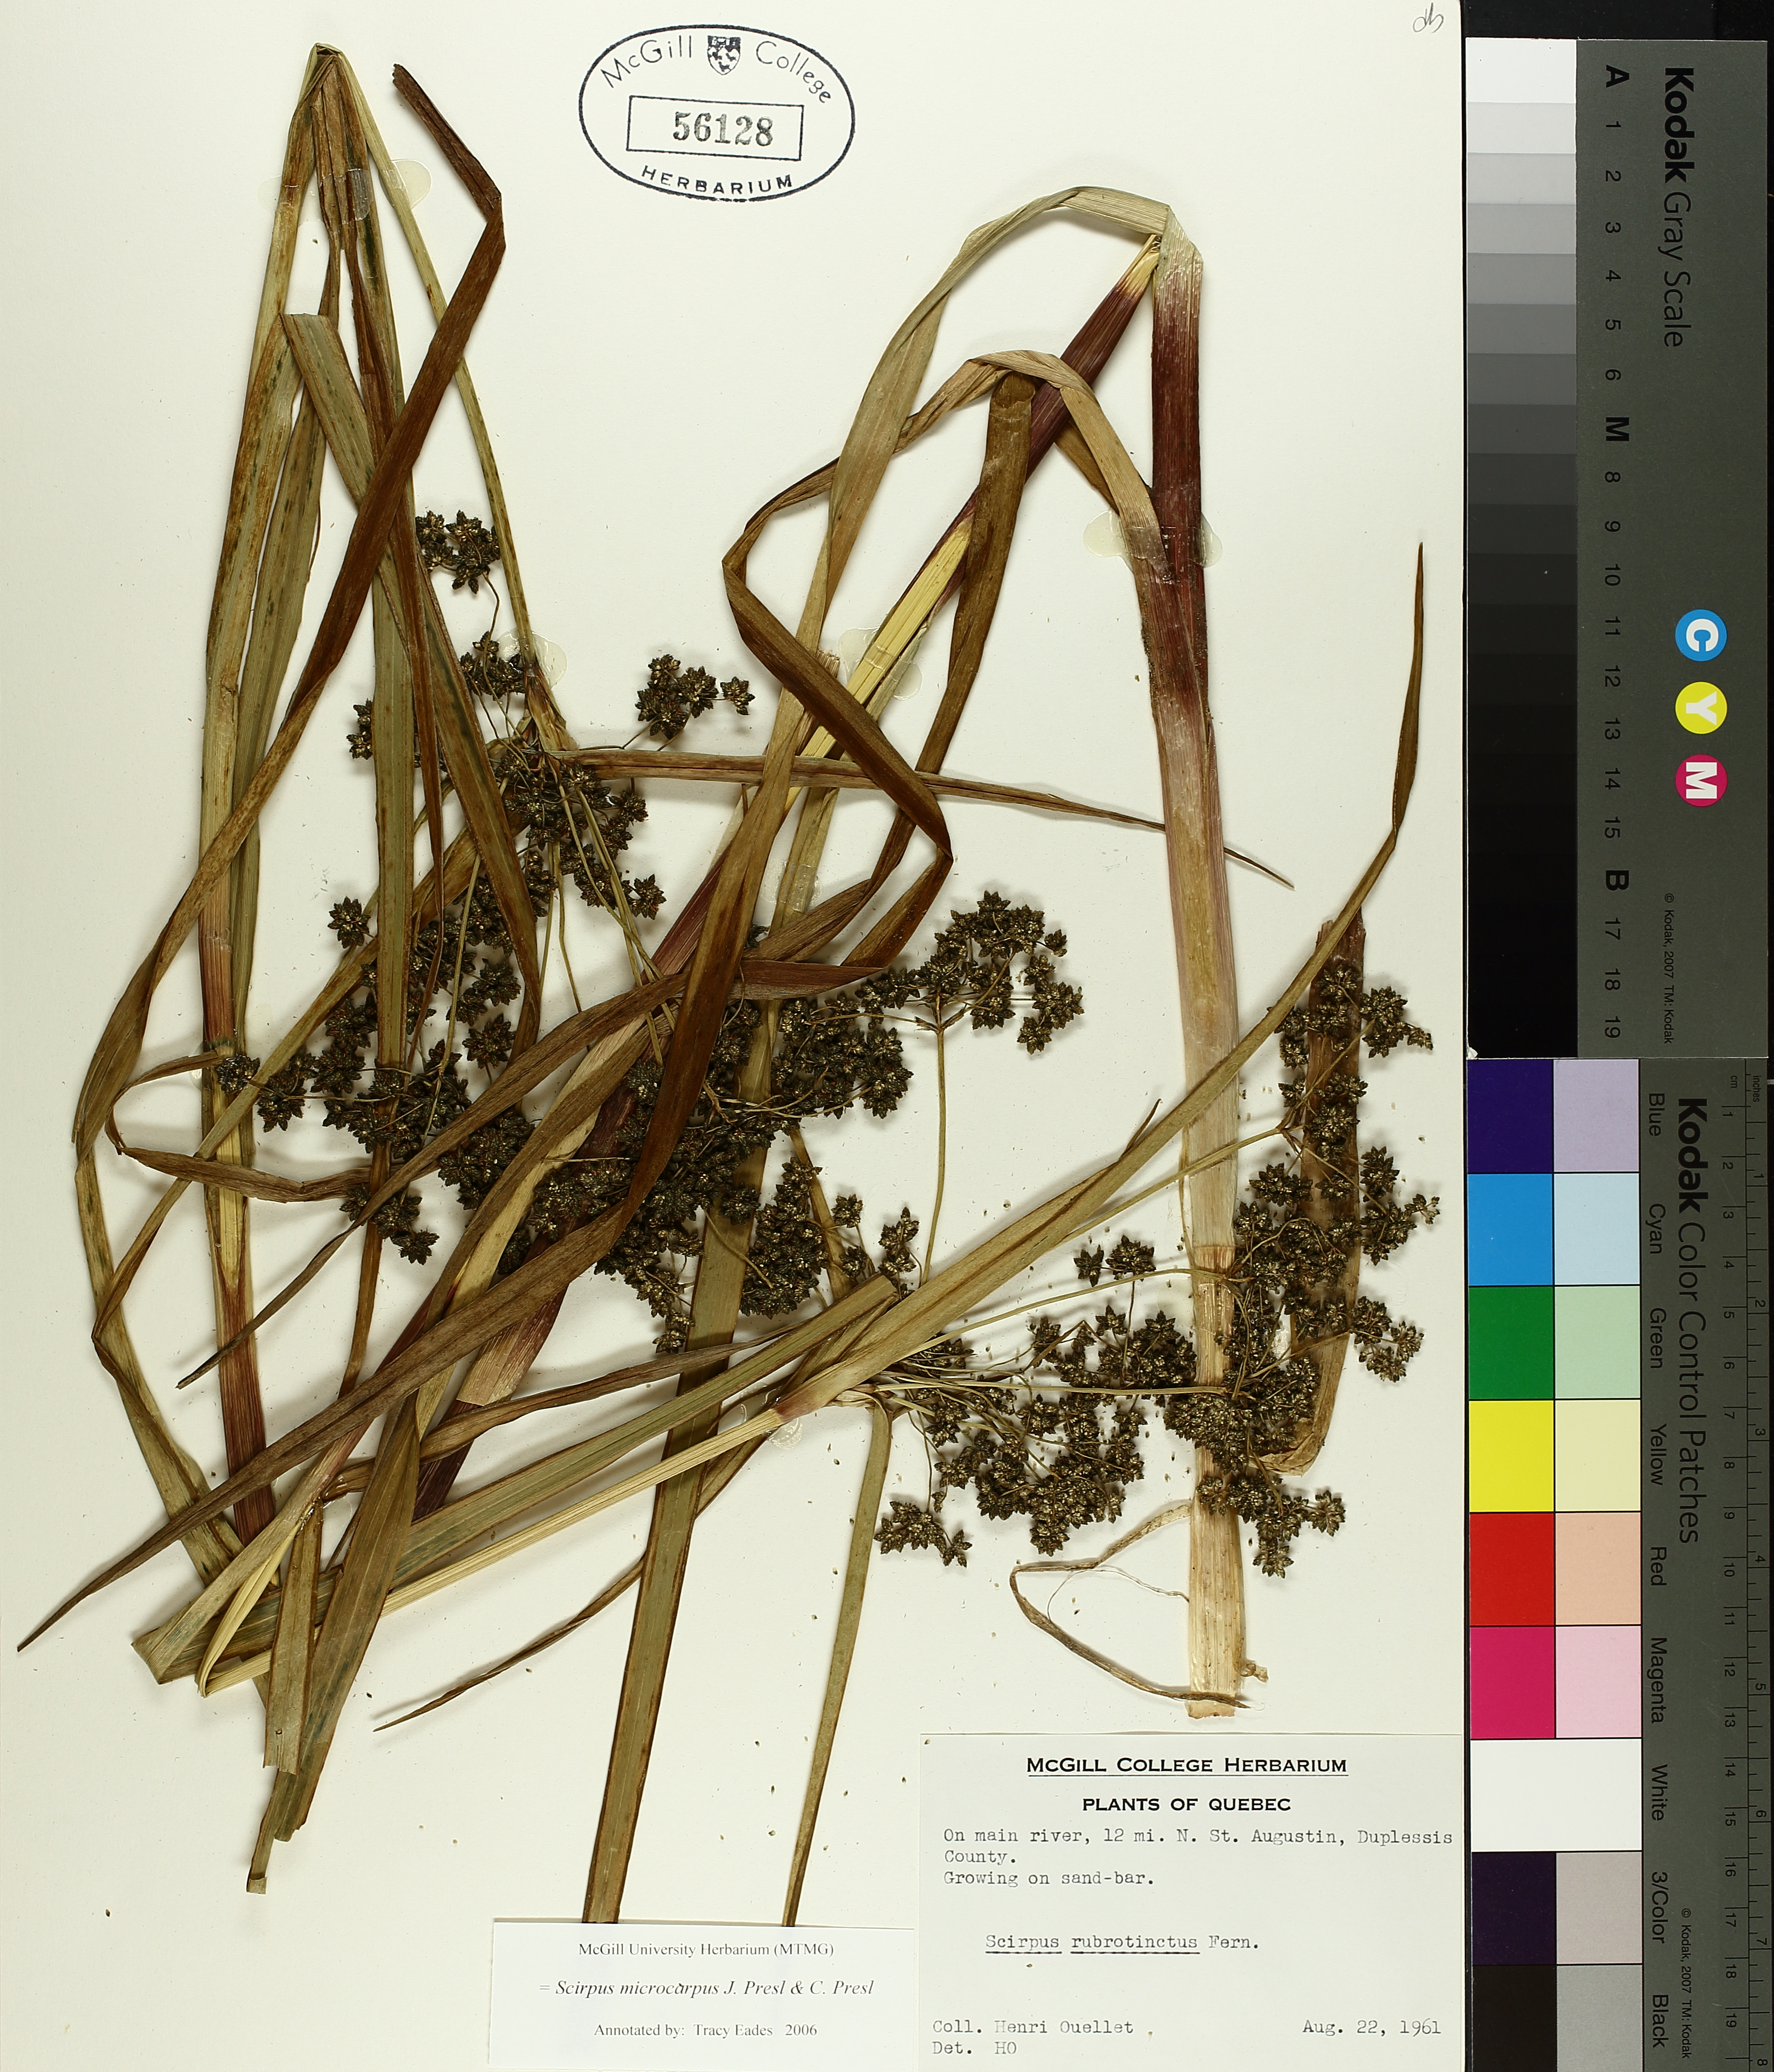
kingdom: Plantae
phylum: Tracheophyta
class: Liliopsida
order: Poales
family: Cyperaceae
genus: Scirpus
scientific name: Scirpus microcarpus
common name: Panicled bulrush
